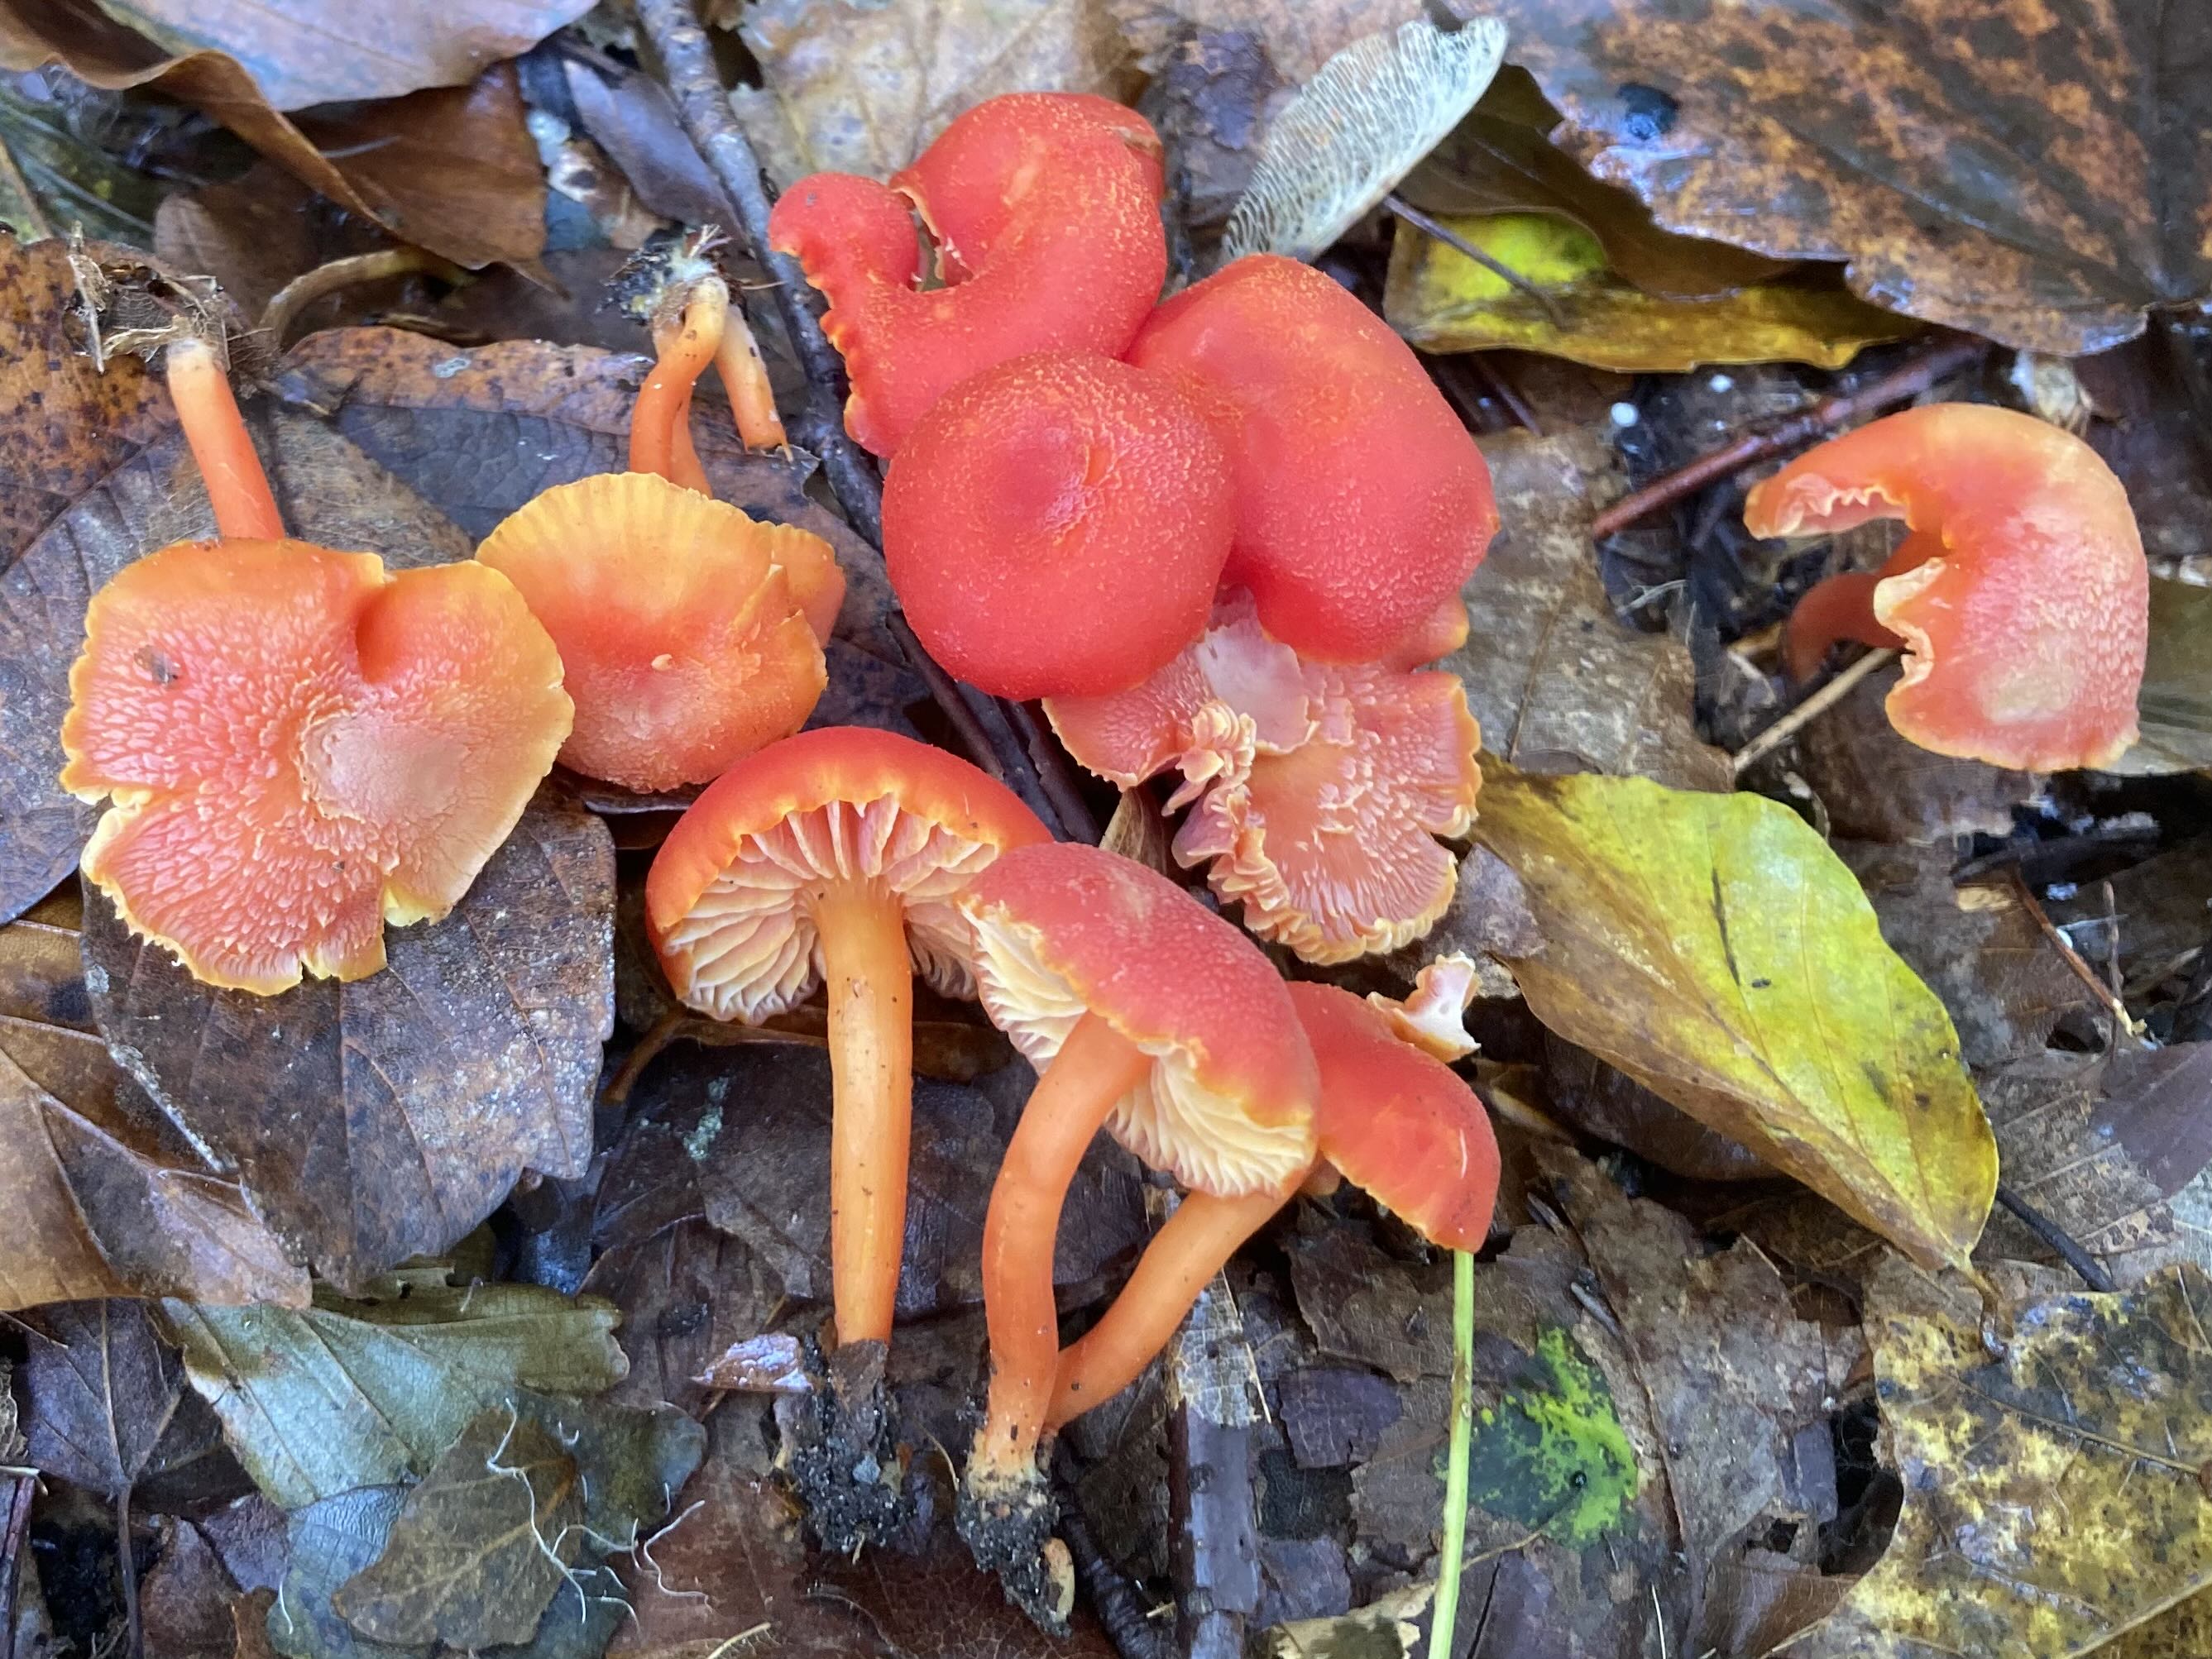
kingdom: Fungi
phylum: Basidiomycota
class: Agaricomycetes
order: Agaricales
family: Hygrophoraceae
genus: Hygrocybe
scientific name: Hygrocybe miniata
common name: mønje-vokshat
